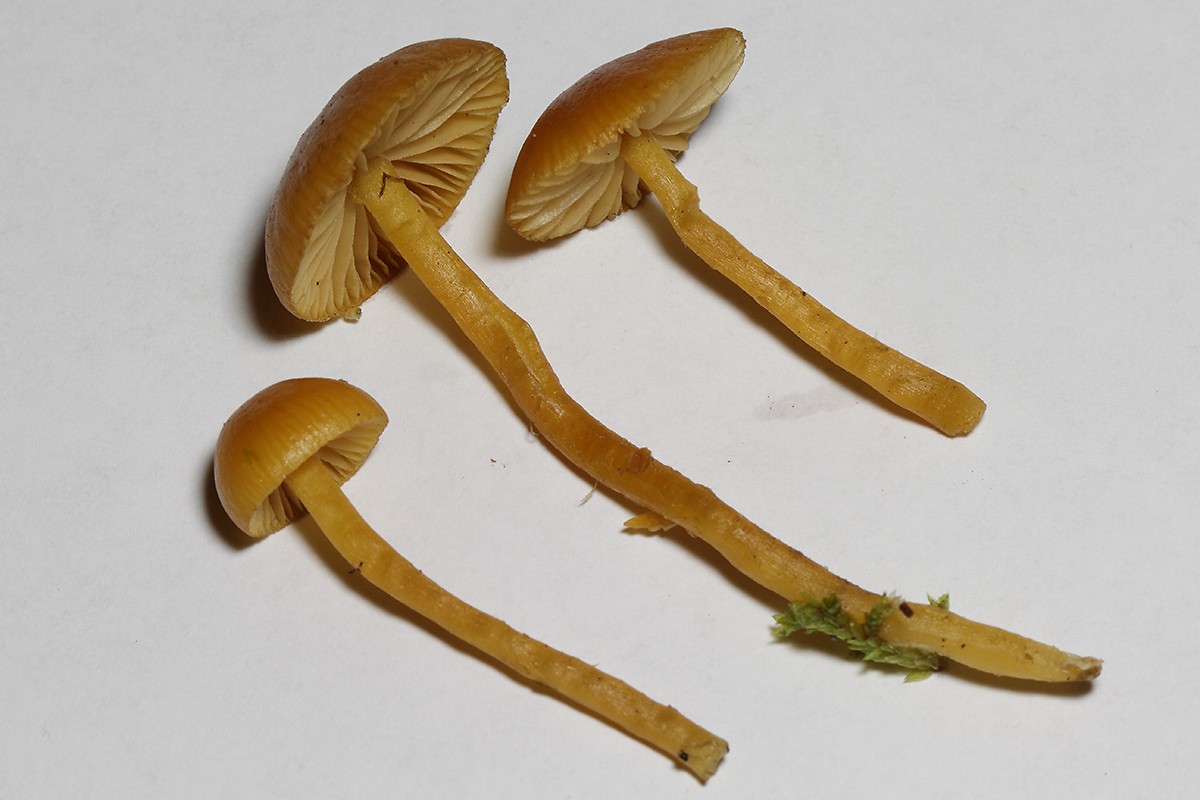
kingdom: Fungi
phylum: Basidiomycota
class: Agaricomycetes
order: Agaricales
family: Hymenogastraceae
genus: Galerina
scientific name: Galerina pumila
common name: honninggul hjelmhat
